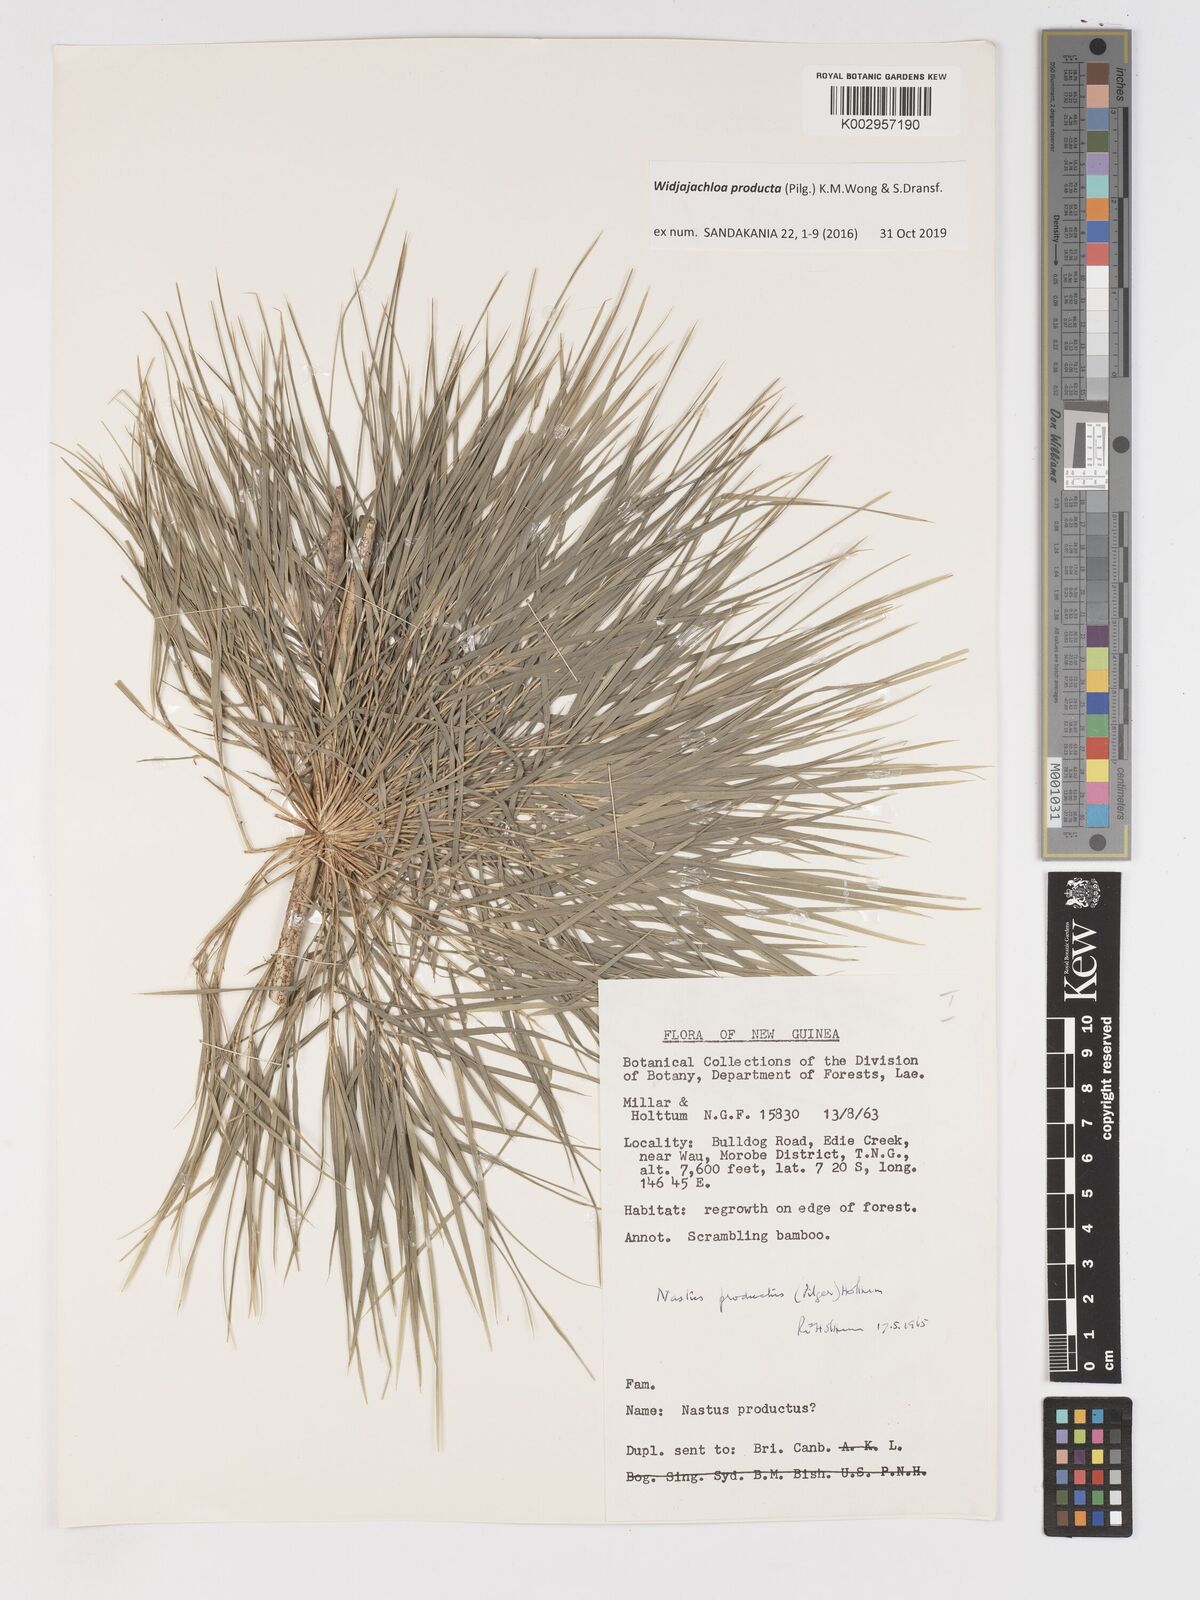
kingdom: Plantae
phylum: Tracheophyta
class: Liliopsida
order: Poales
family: Poaceae
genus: Widjajachloa
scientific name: Widjajachloa producta
